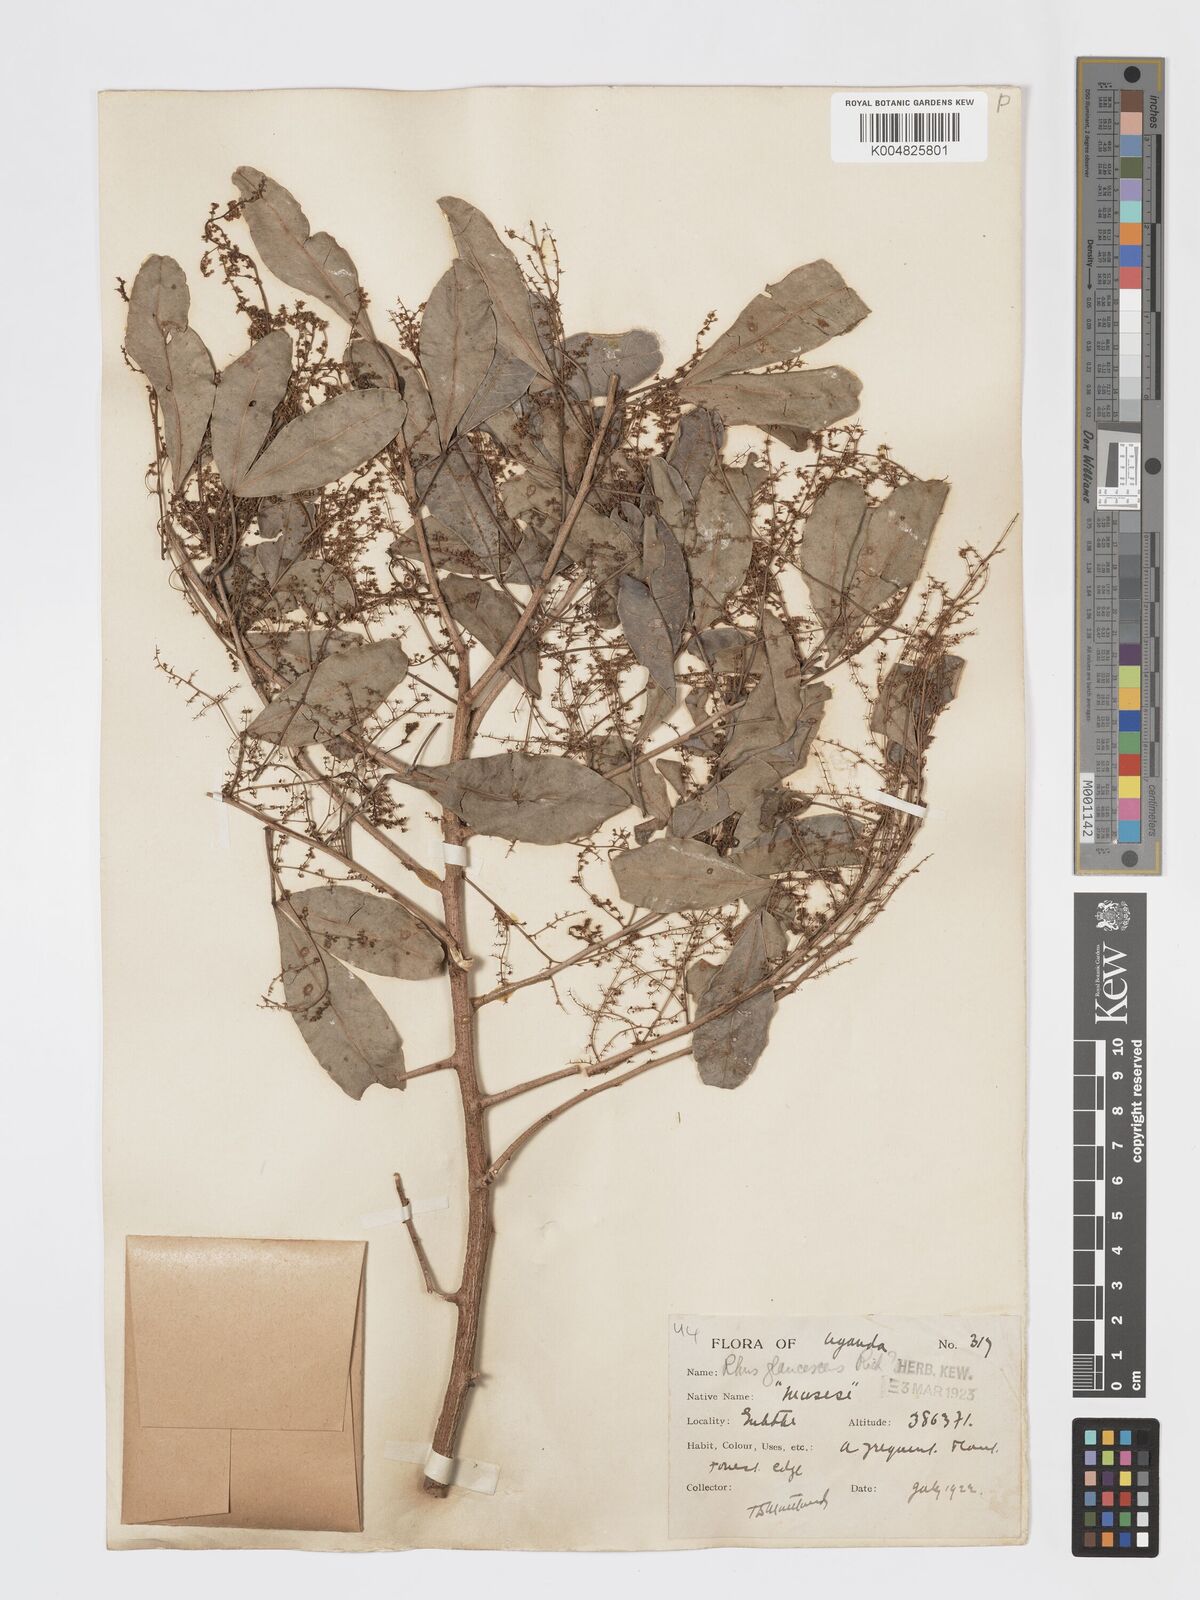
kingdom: Plantae
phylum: Tracheophyta
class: Magnoliopsida
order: Sapindales
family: Anacardiaceae
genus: Searsia
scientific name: Searsia natalensis
